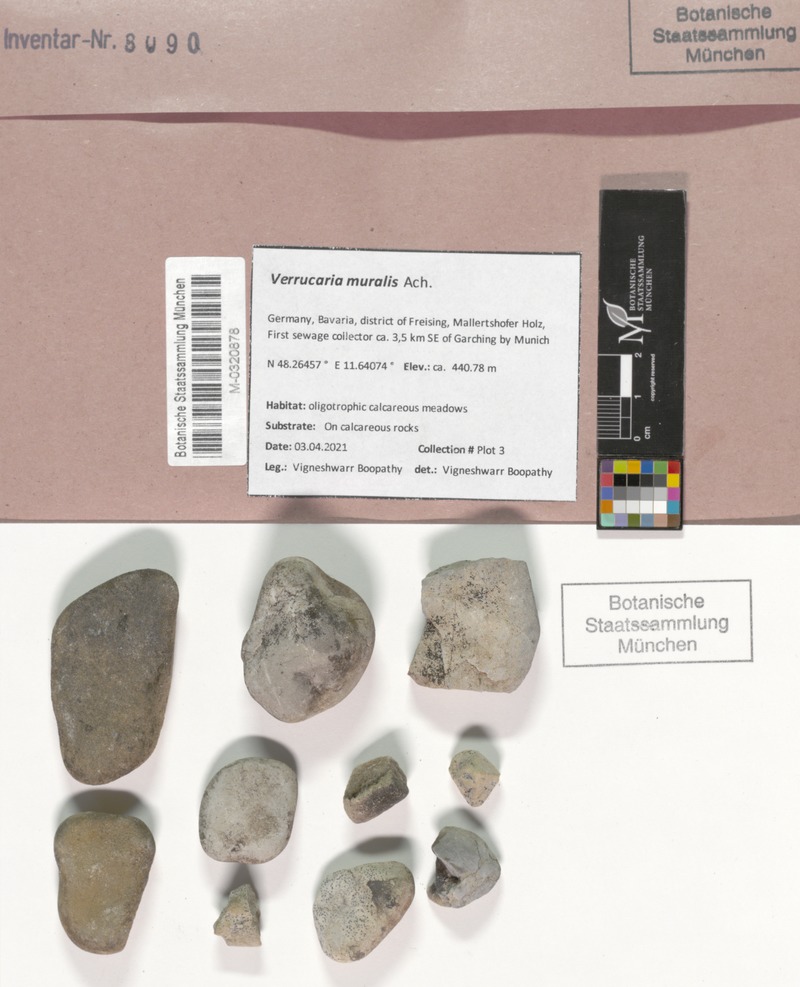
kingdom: Fungi
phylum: Ascomycota
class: Eurotiomycetes
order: Verrucariales
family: Verrucariaceae
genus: Verrucaria
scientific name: Verrucaria muralis
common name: Wall speck lichen
